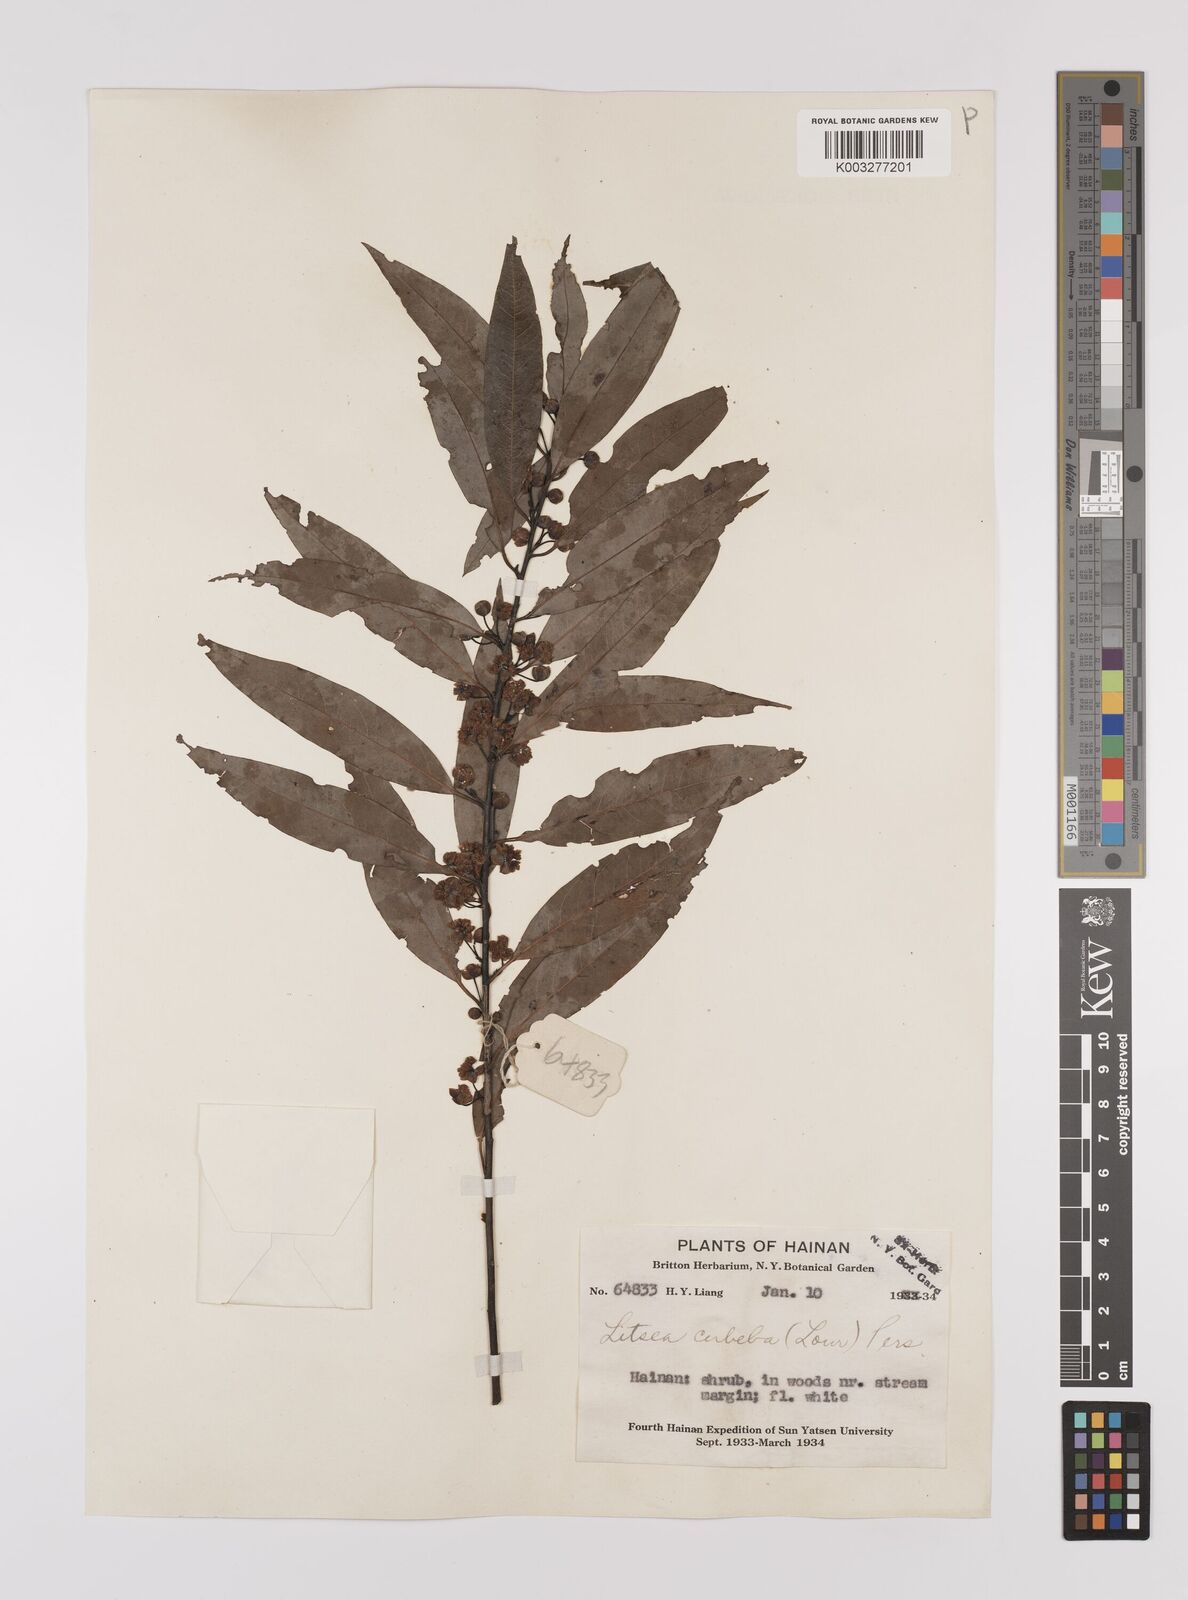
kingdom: Plantae
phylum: Tracheophyta
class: Magnoliopsida
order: Laurales
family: Lauraceae
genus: Litsea
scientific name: Litsea cubeba
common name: Mountain-pepper
